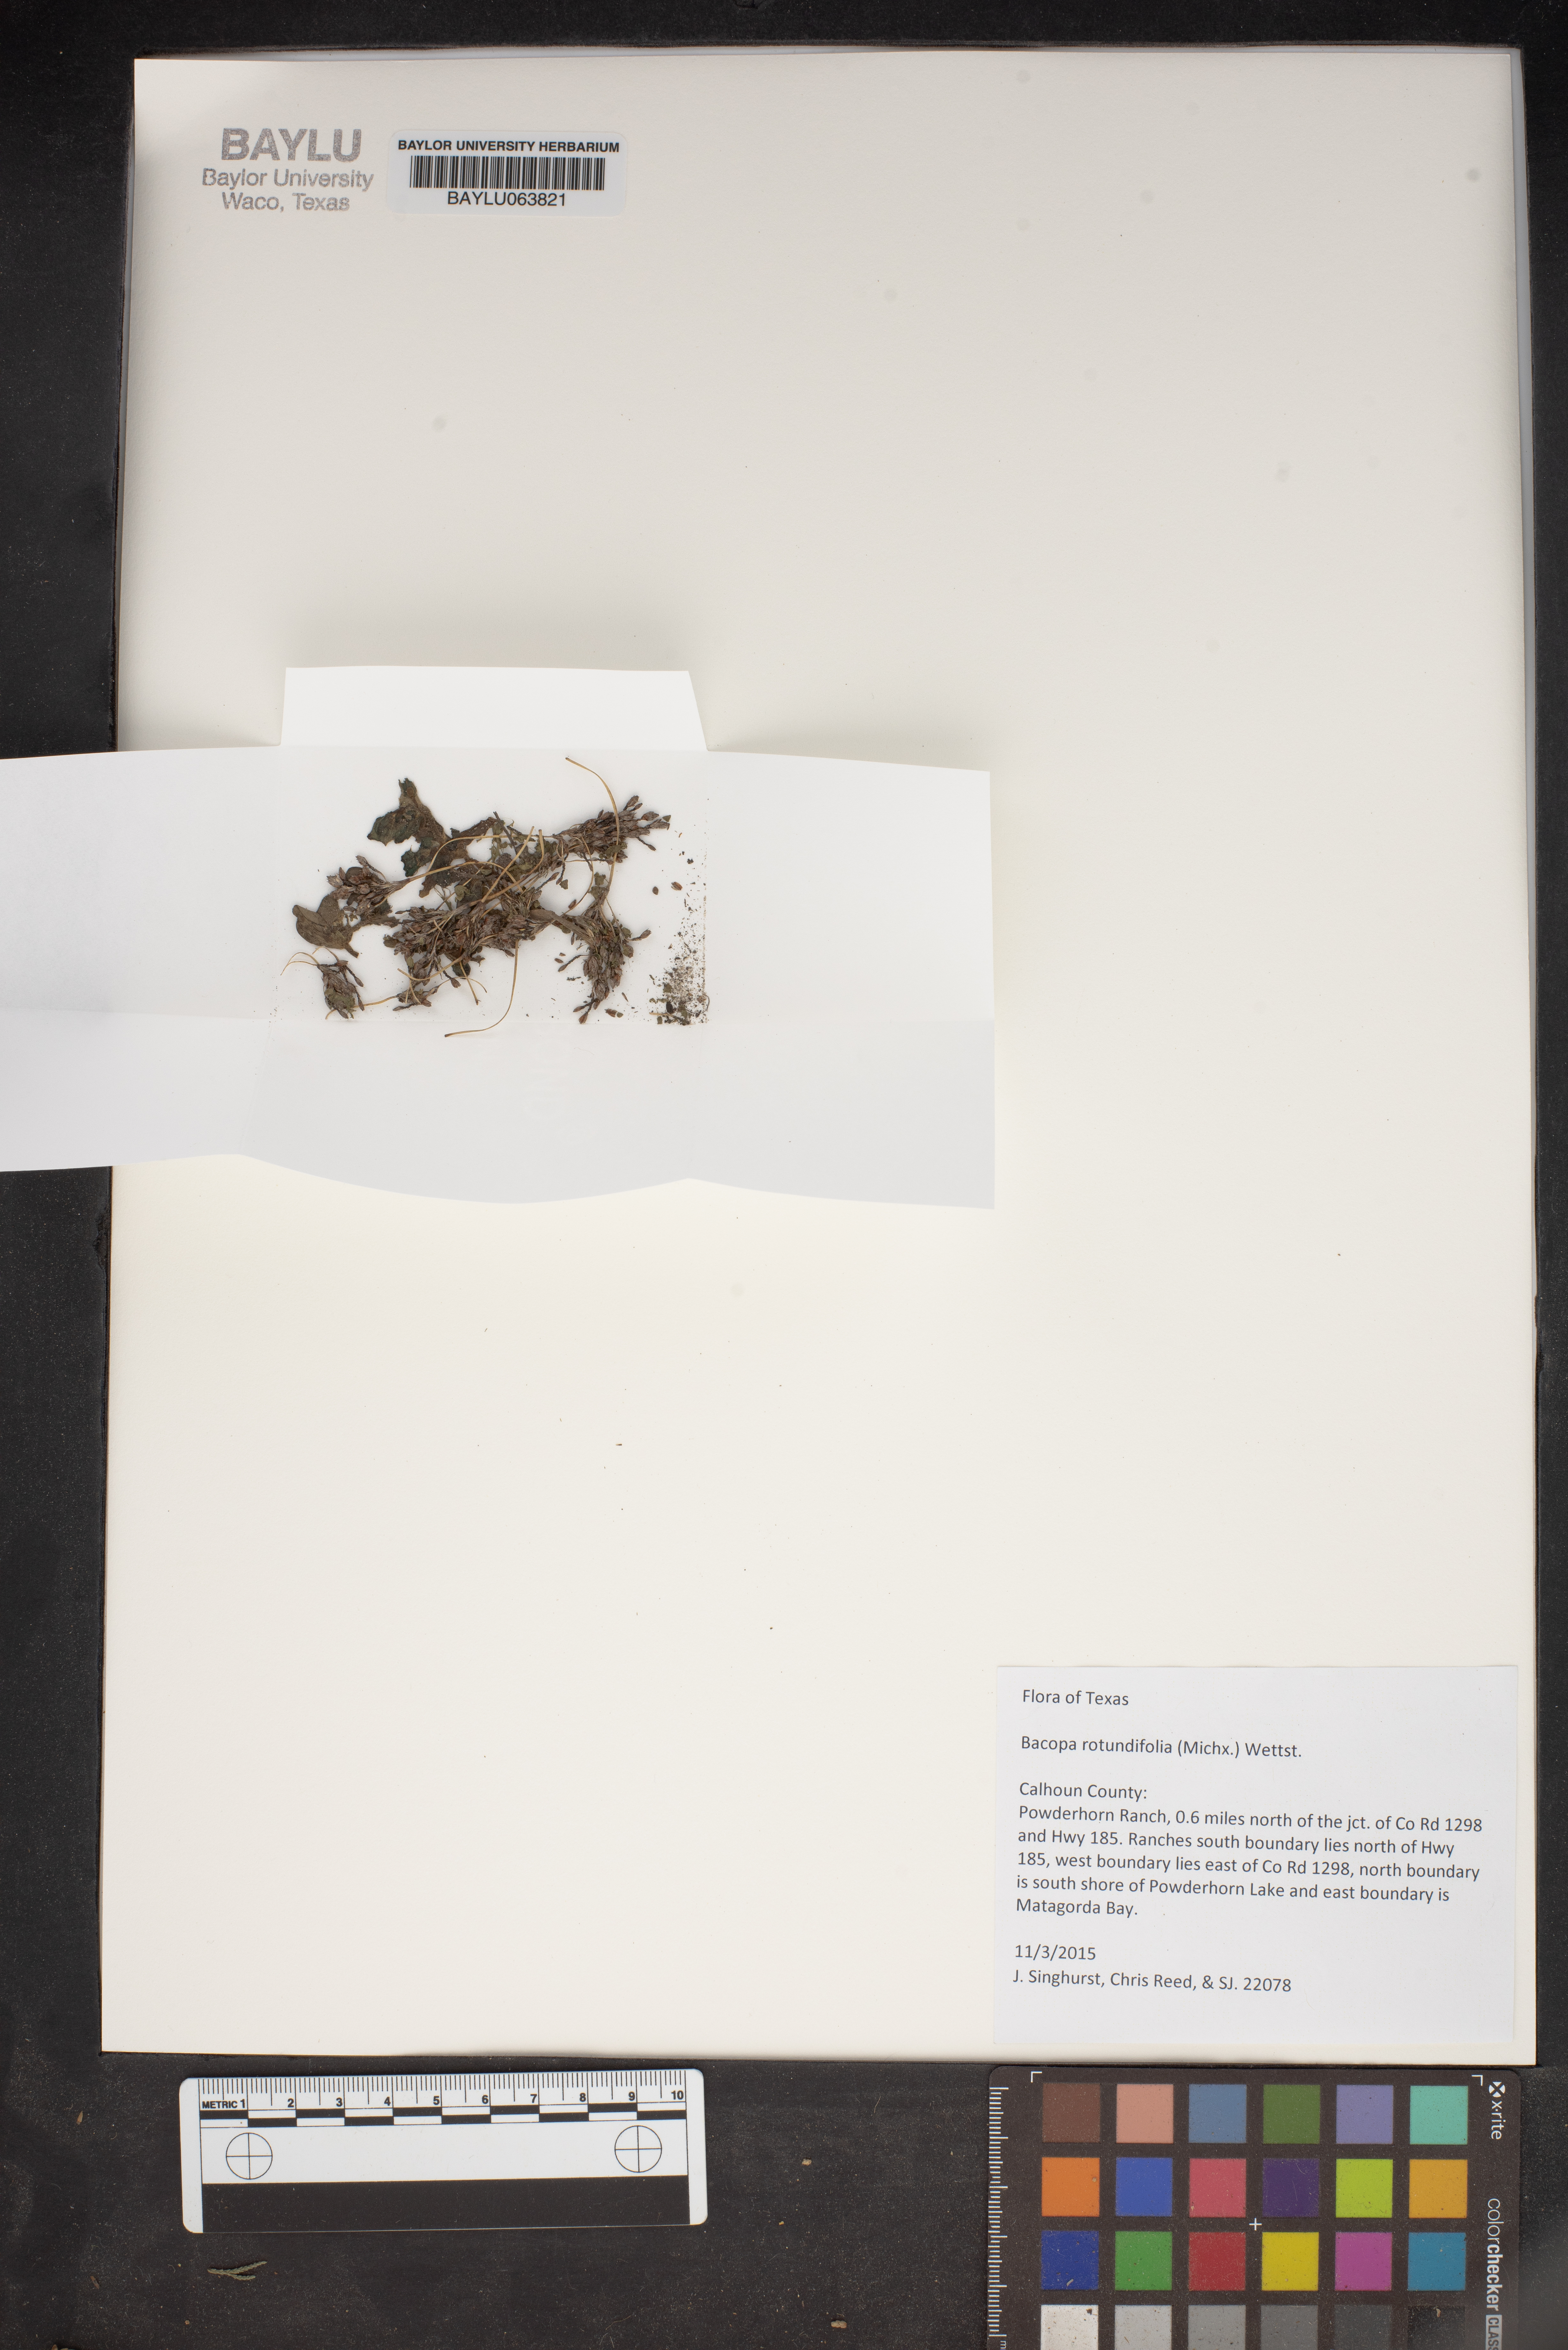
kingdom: Plantae
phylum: Tracheophyta
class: Magnoliopsida
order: Lamiales
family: Plantaginaceae
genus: Bacopa
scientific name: Bacopa rotundifolia
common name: Disc water hyssop
